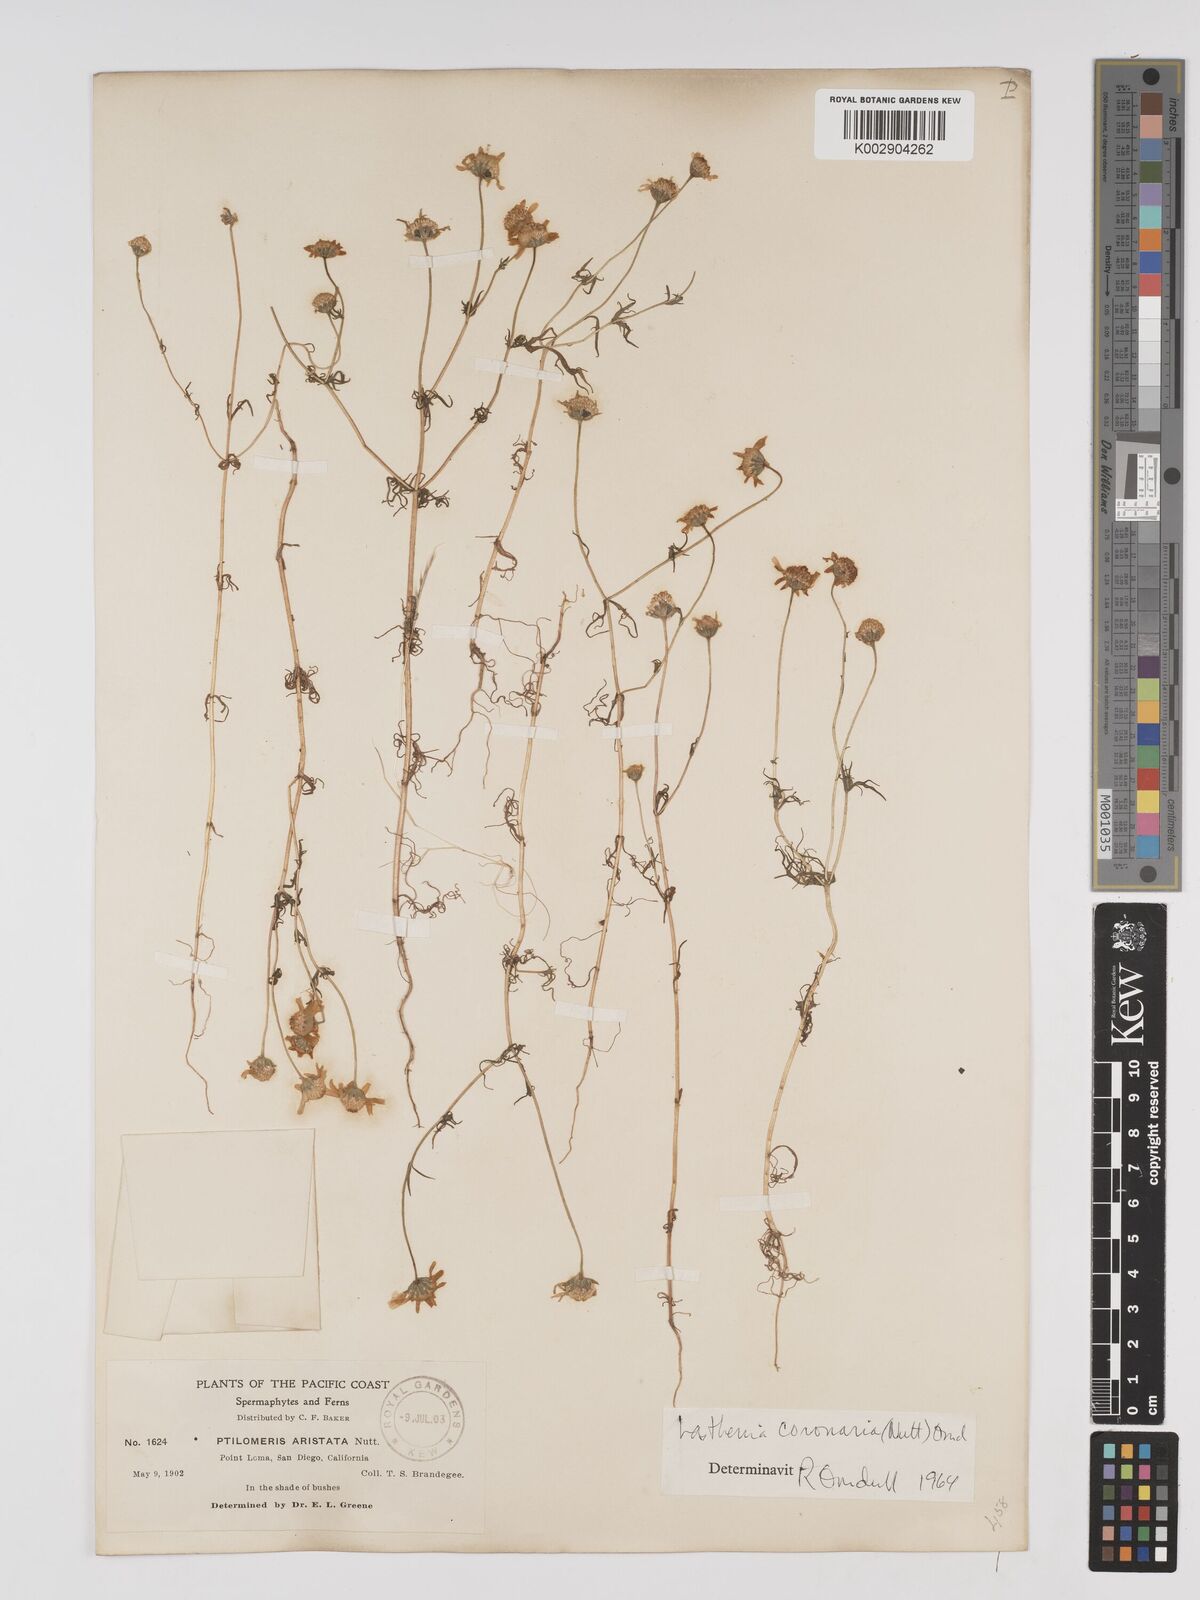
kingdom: Plantae
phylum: Tracheophyta
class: Magnoliopsida
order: Asterales
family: Asteraceae
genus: Lasthenia
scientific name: Lasthenia coronaria
